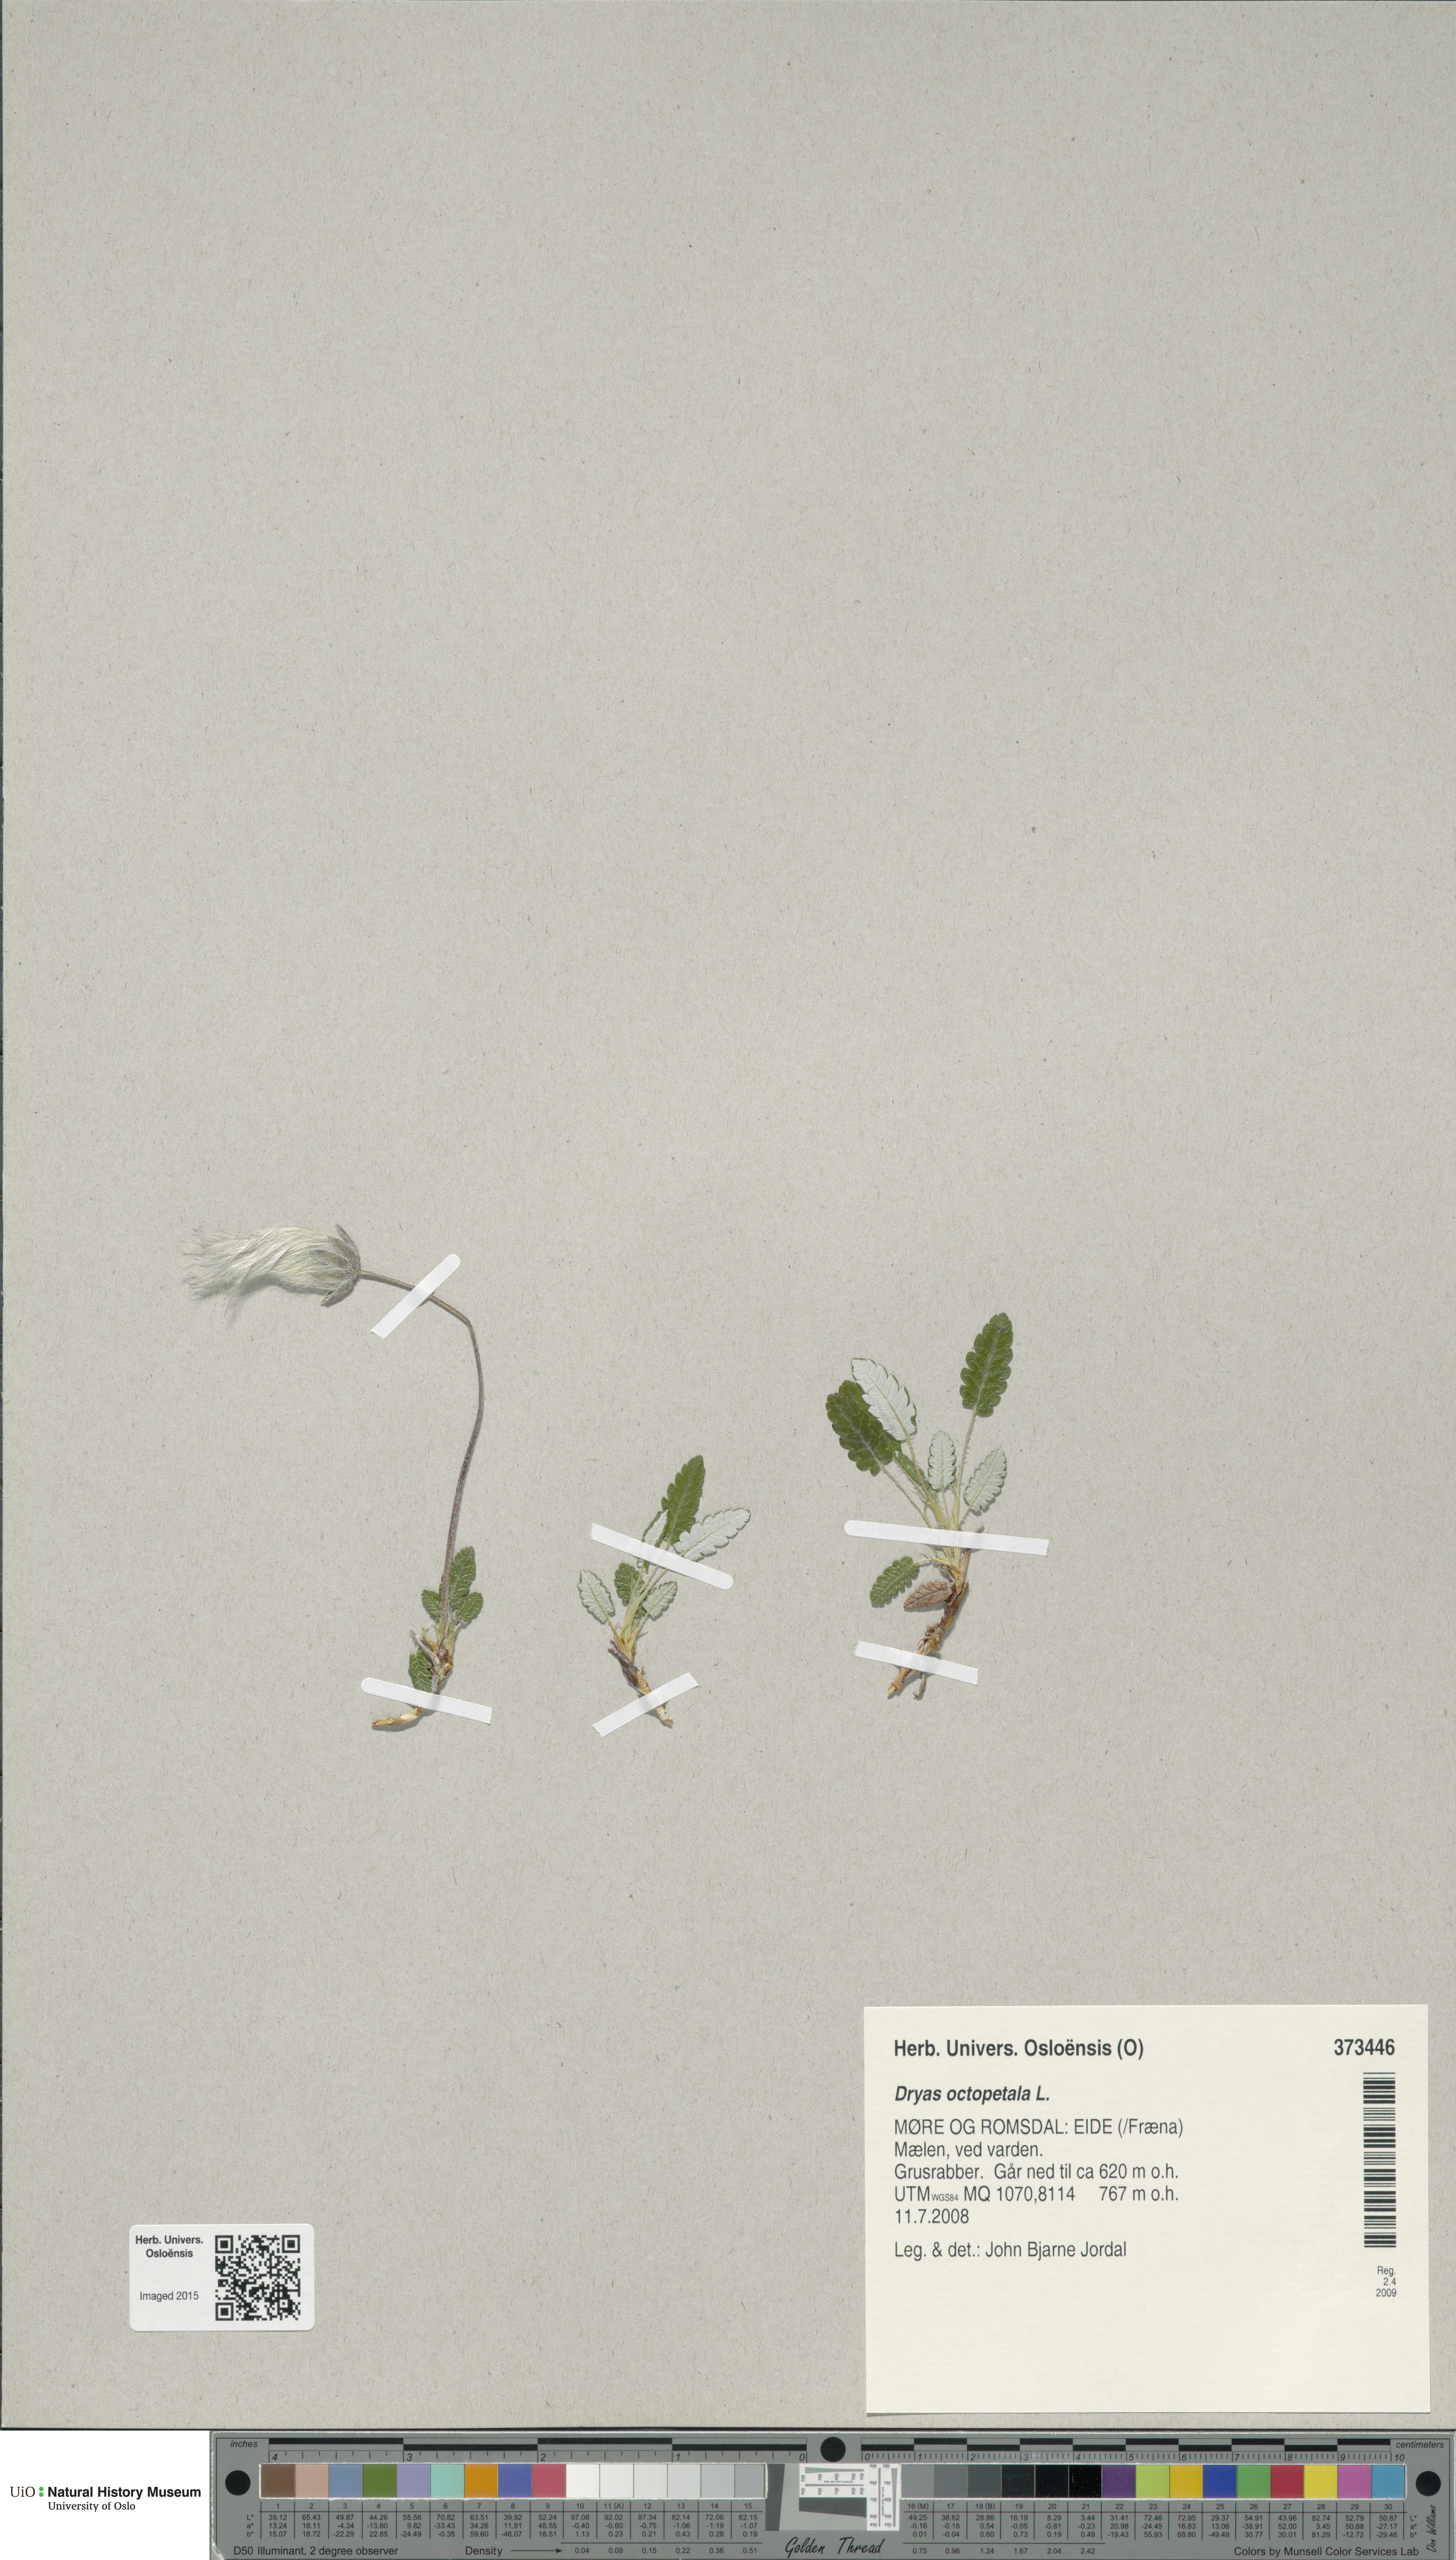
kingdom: Plantae
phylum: Tracheophyta
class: Magnoliopsida
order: Rosales
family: Rosaceae
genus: Dryas
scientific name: Dryas octopetala
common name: Eight-petal mountain-avens
